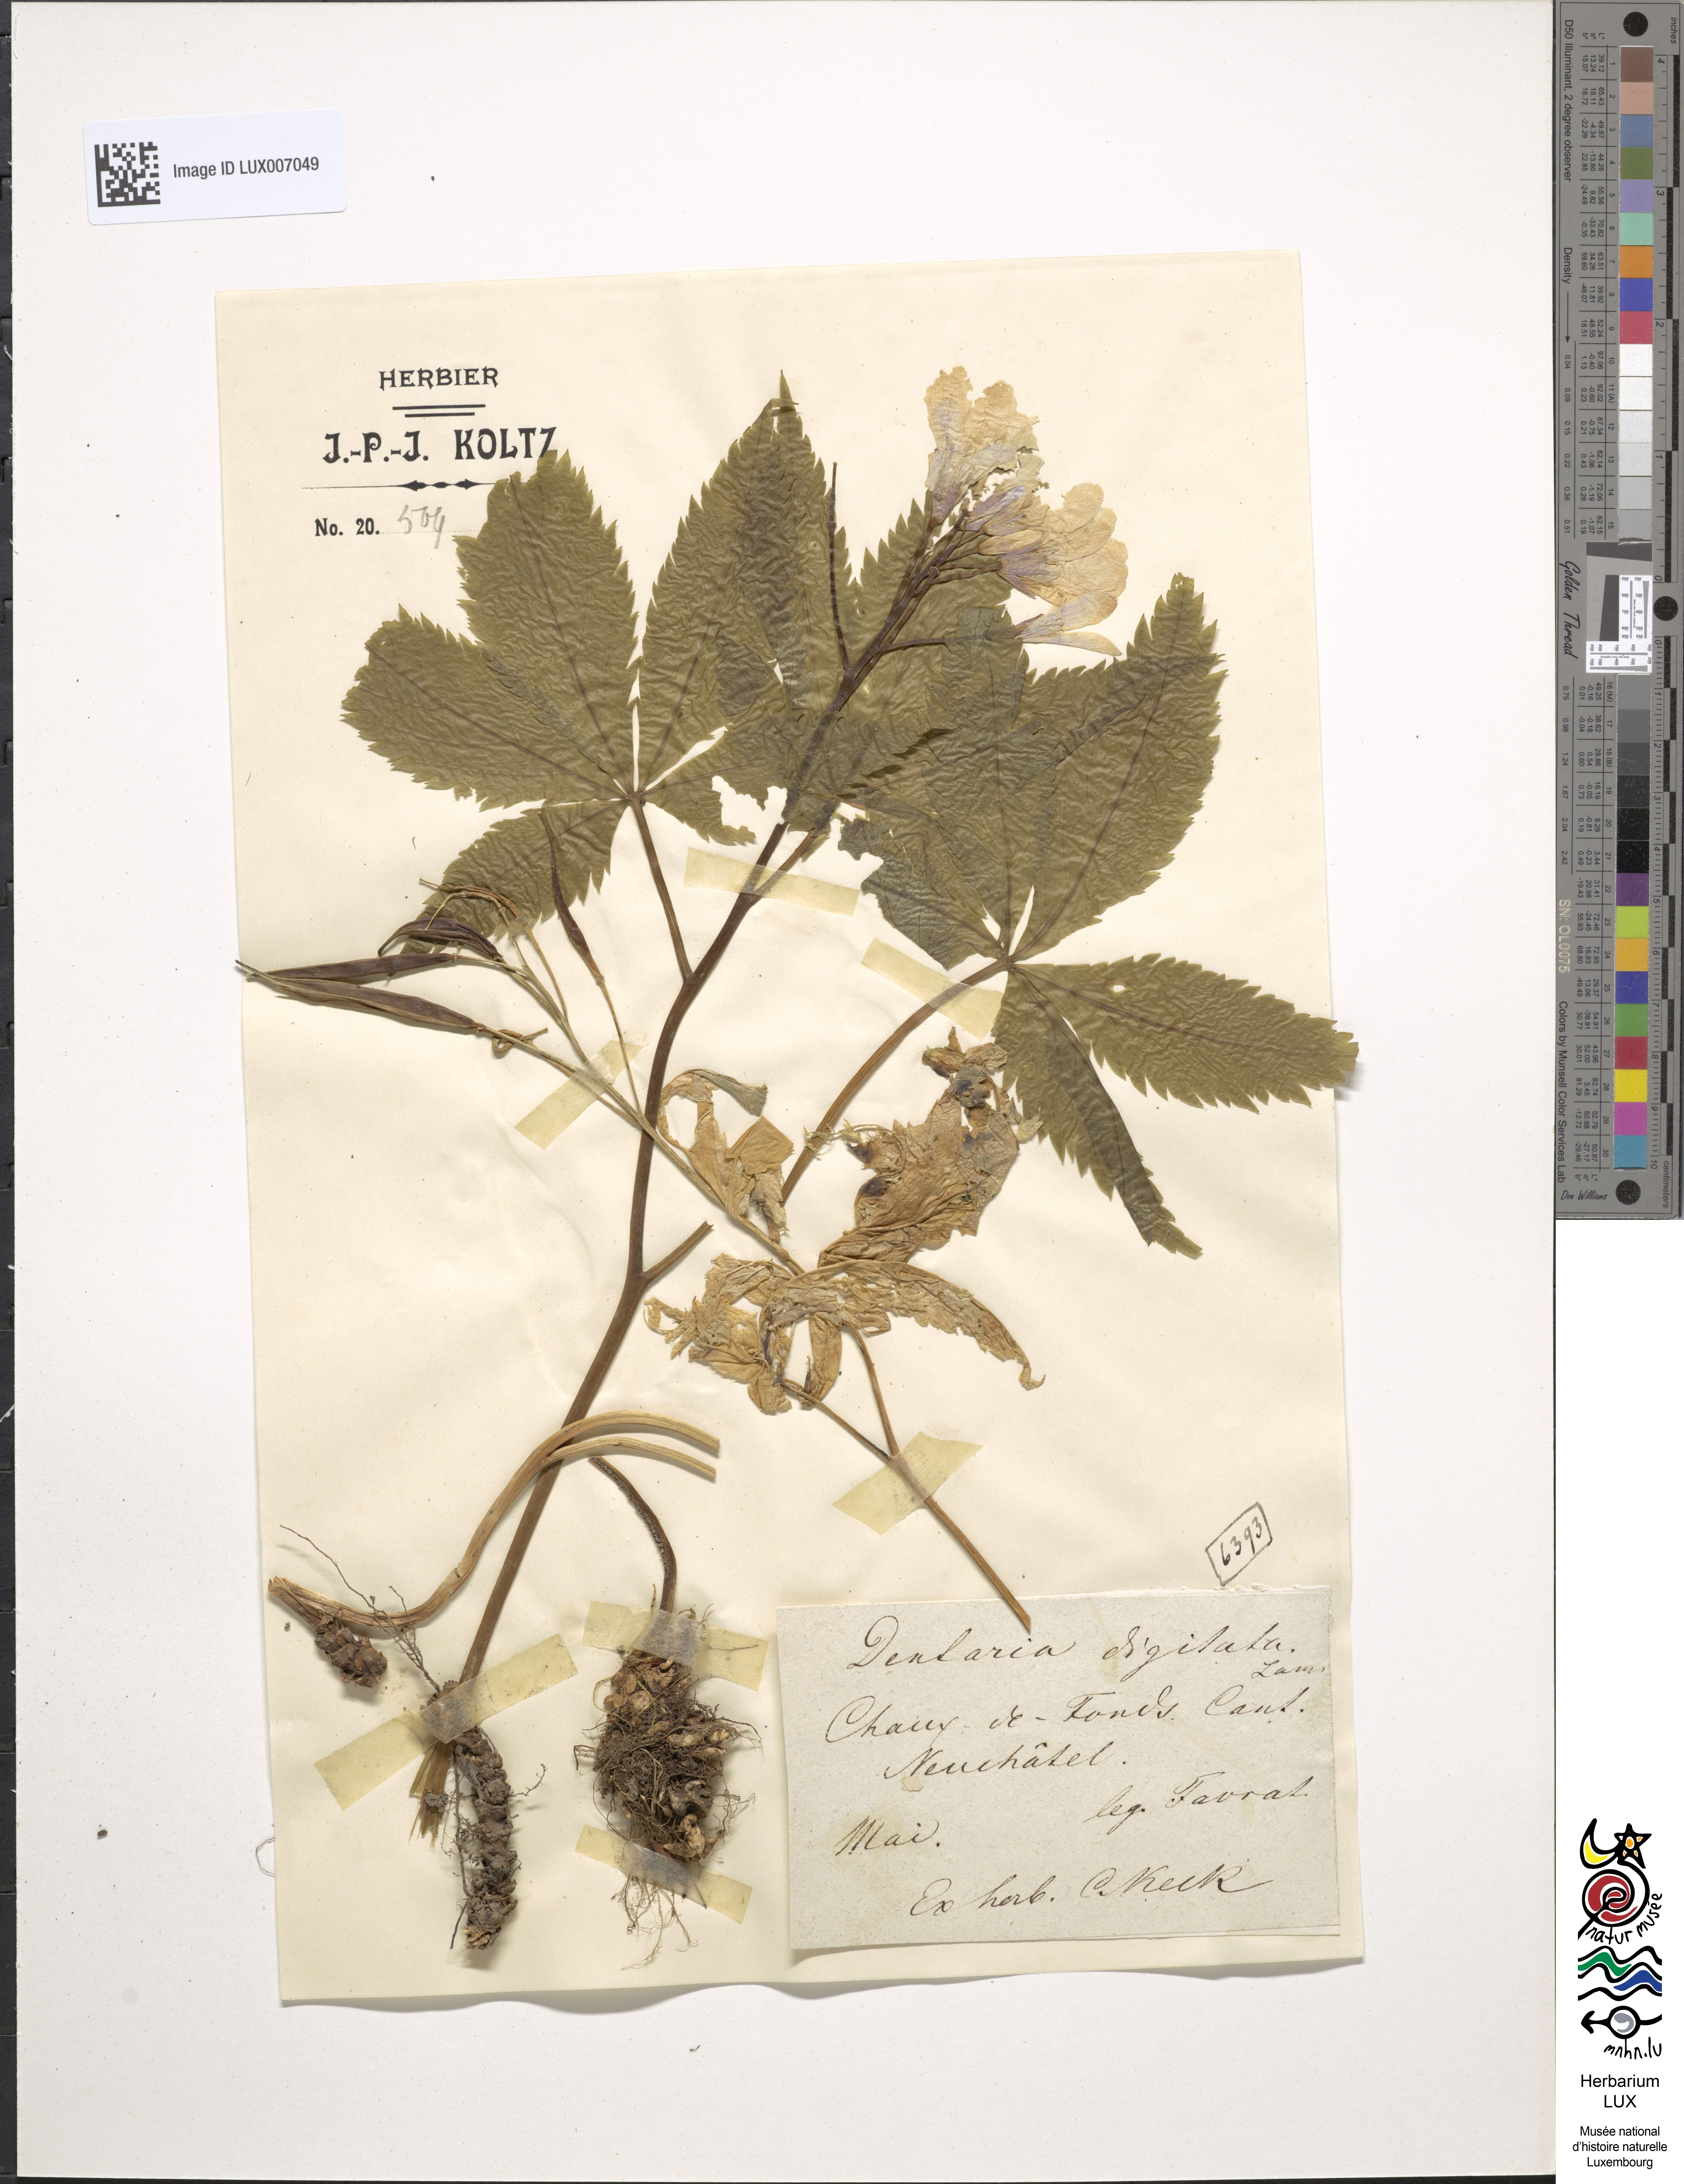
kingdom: Plantae
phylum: Tracheophyta
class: Magnoliopsida
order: Brassicales
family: Brassicaceae
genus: Cardamine
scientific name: Cardamine pentaphyllos
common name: Five-leaflet bitter-cress
